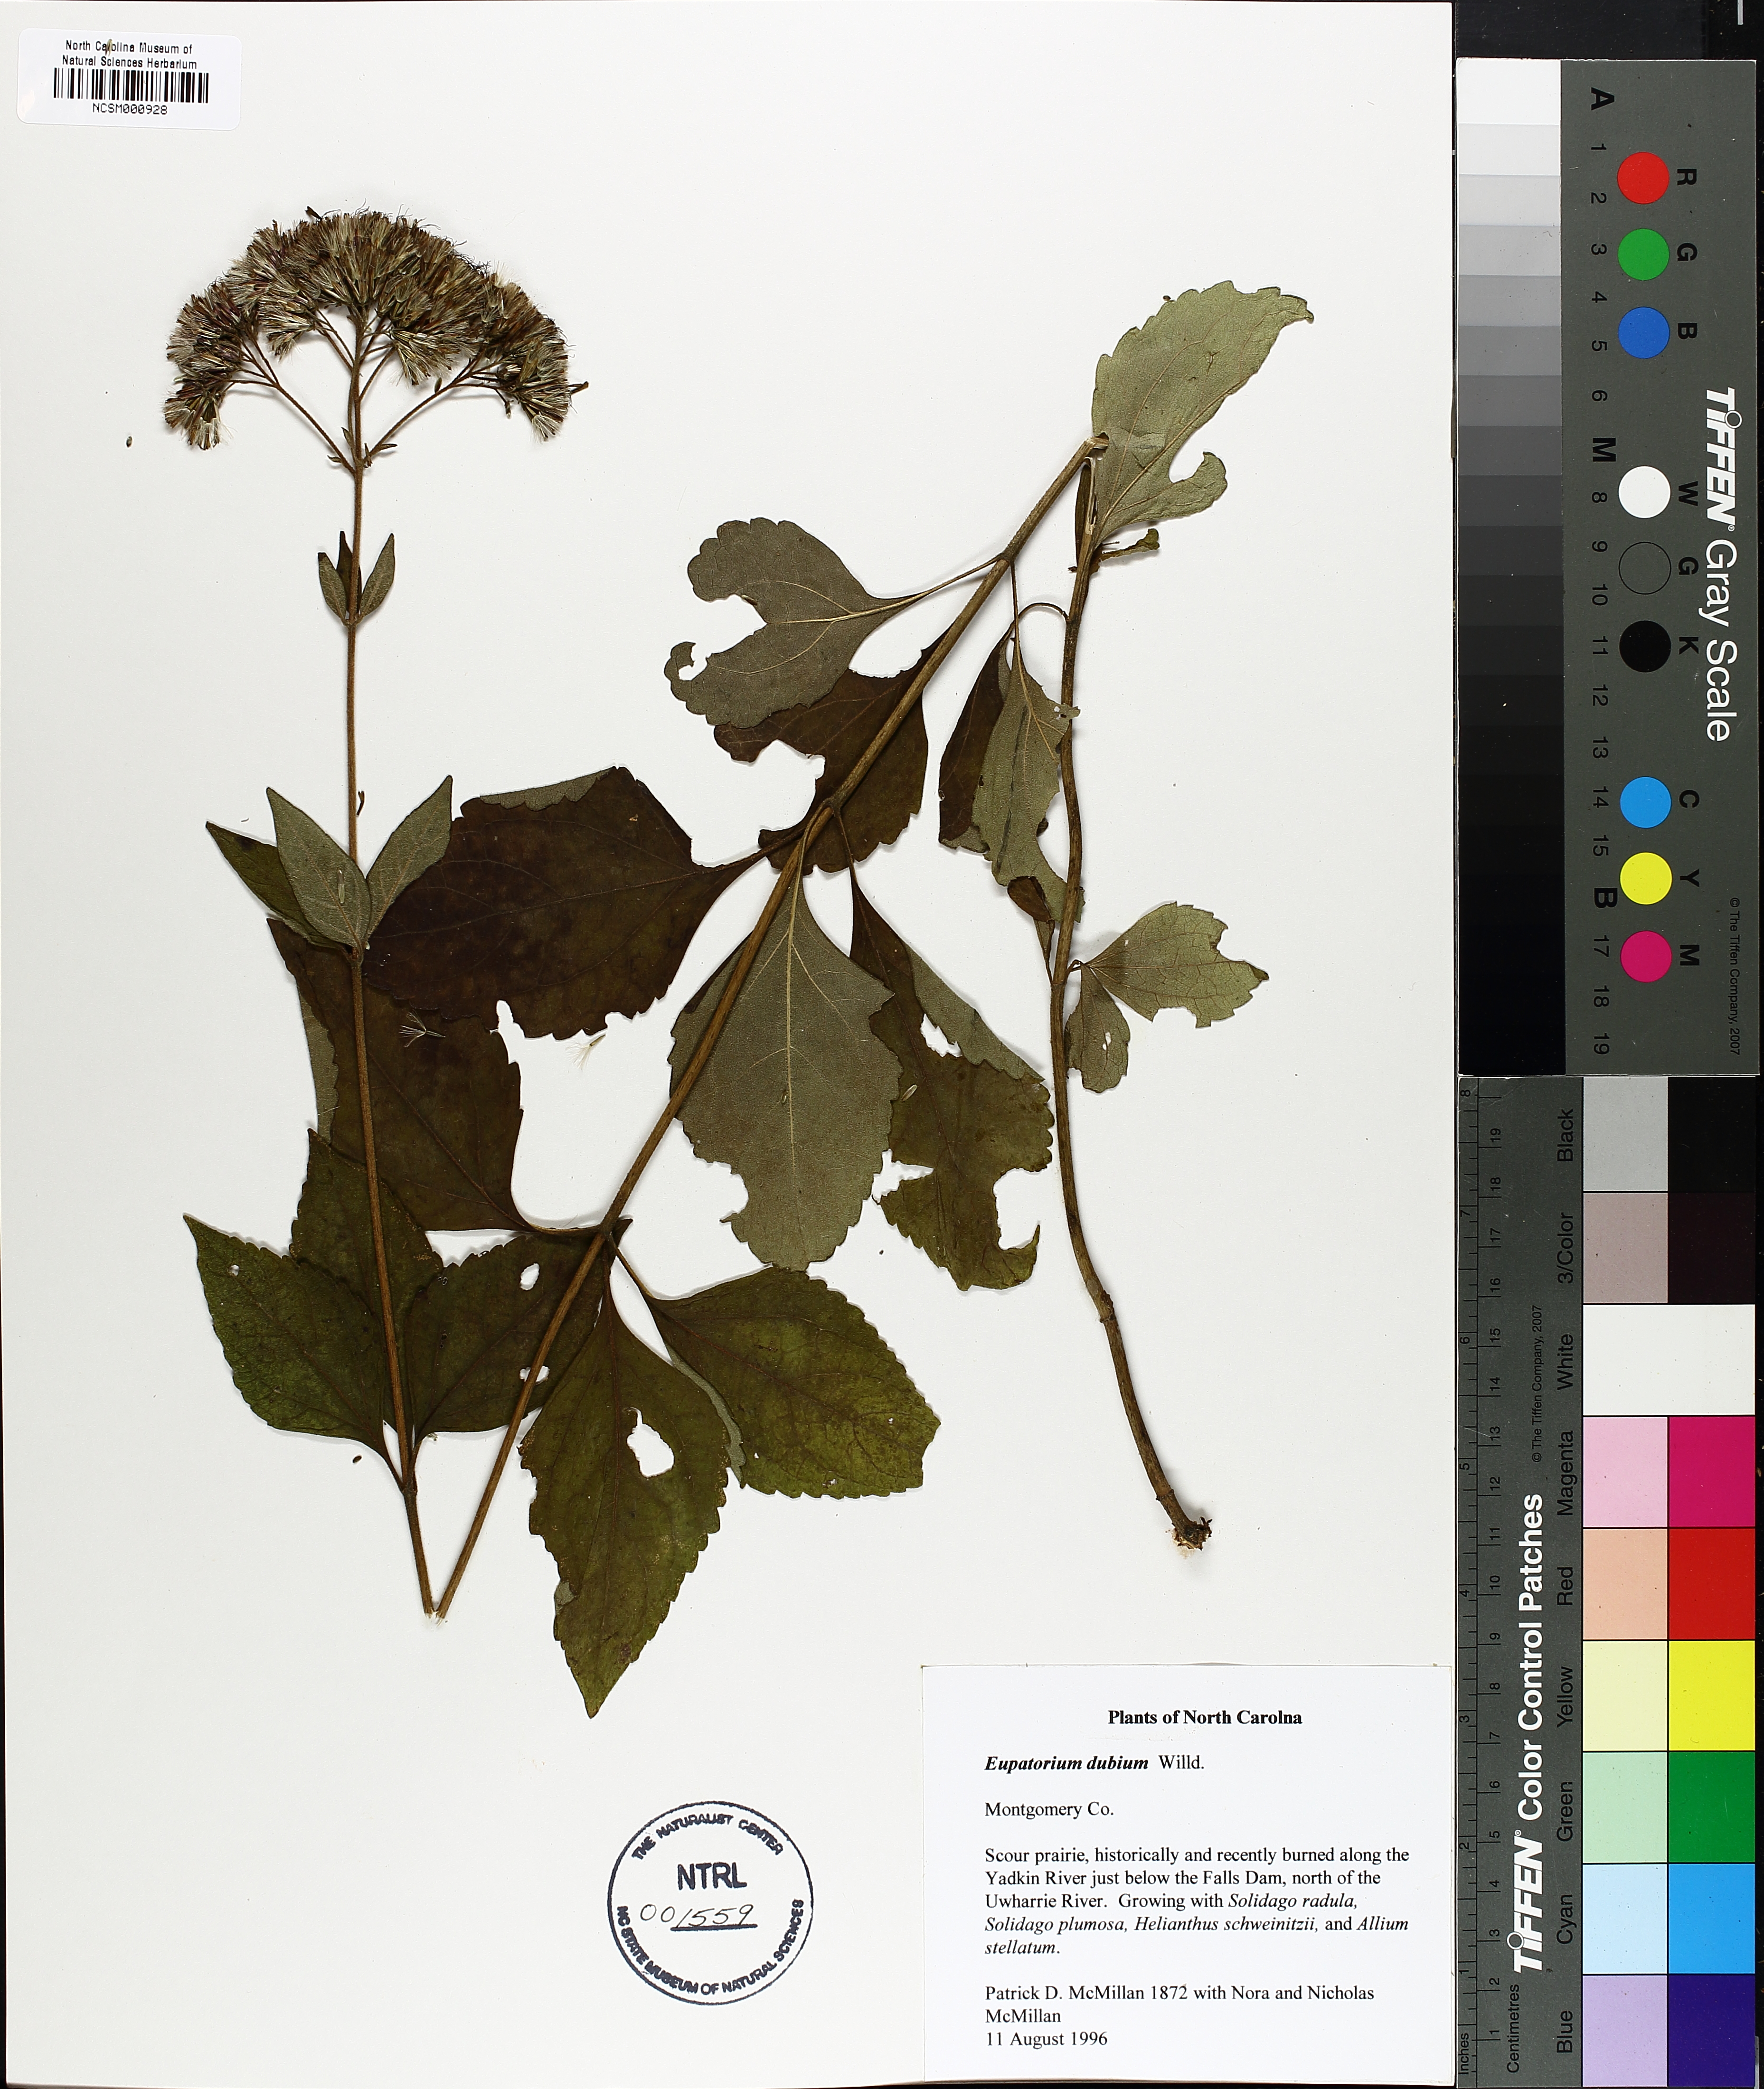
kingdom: Plantae
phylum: Tracheophyta
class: Magnoliopsida
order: Asterales
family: Asteraceae
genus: Eutrochium
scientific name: Eutrochium dubium
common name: Coastal plain joe pye weed
